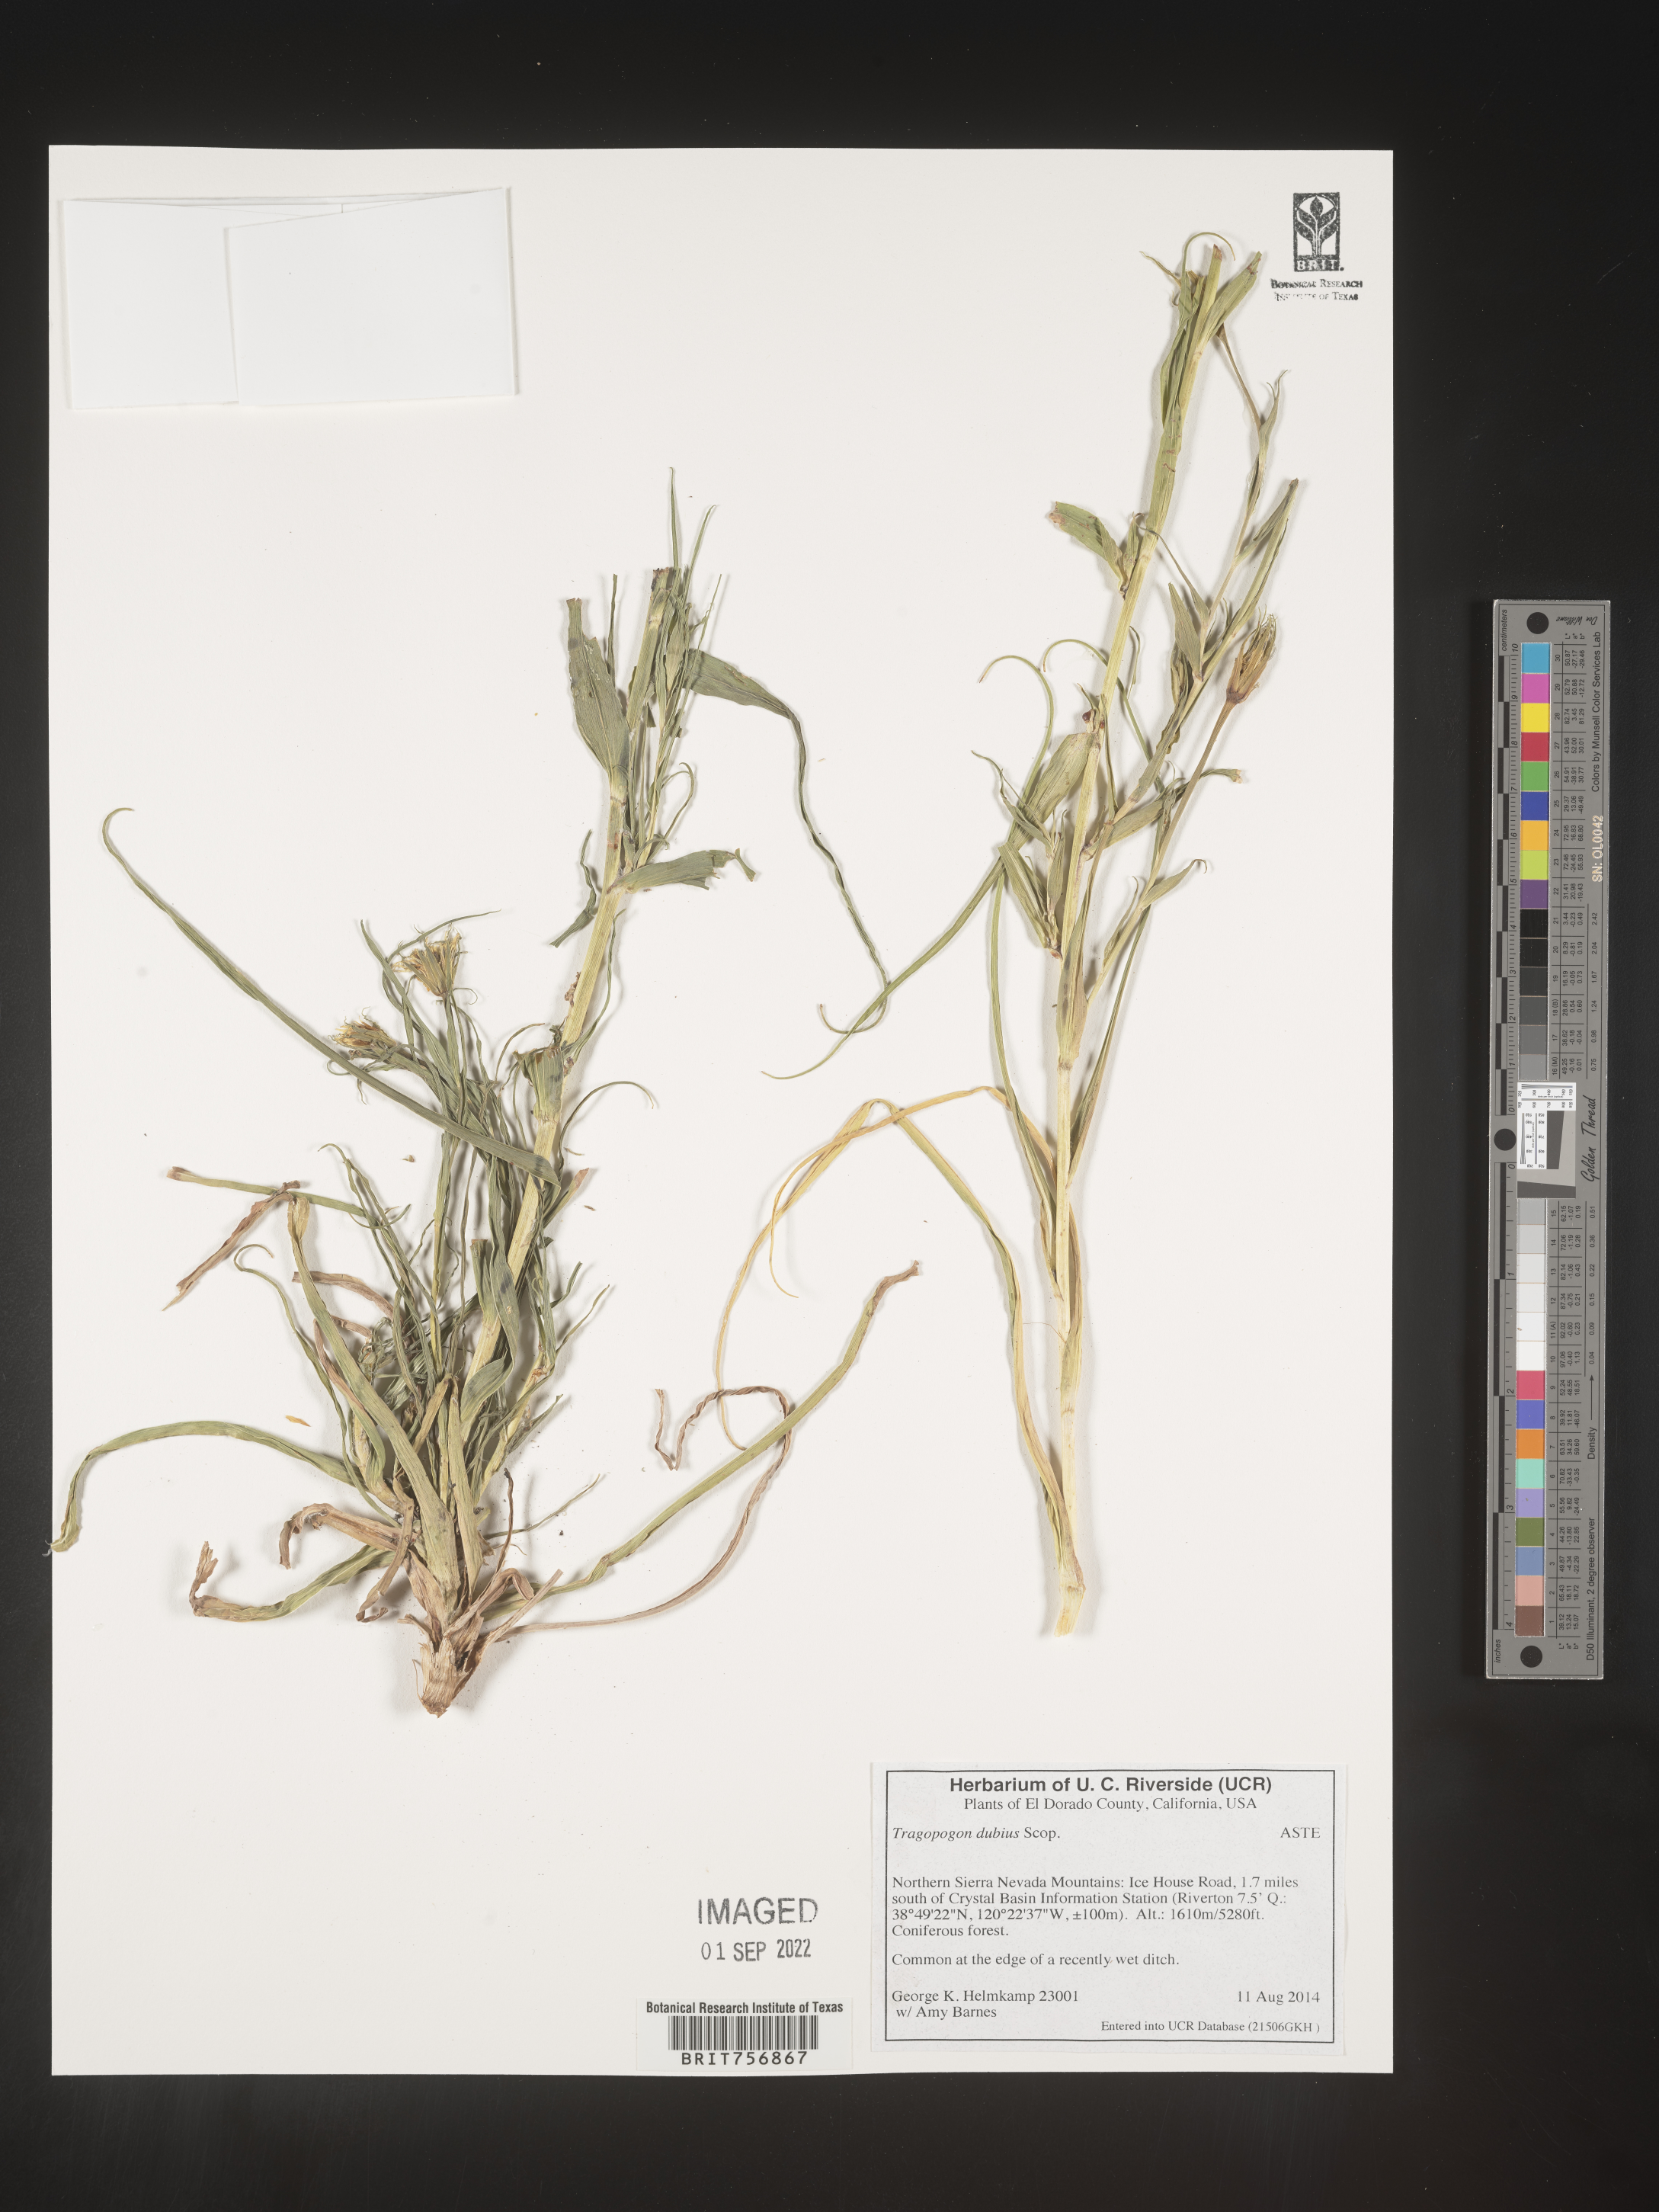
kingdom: Plantae
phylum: Tracheophyta
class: Magnoliopsida
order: Asterales
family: Asteraceae
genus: Tragopogon
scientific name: Tragopogon dubius
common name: Yellow salsify
